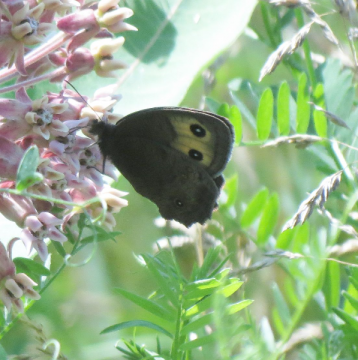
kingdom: Animalia
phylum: Arthropoda
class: Insecta
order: Lepidoptera
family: Nymphalidae
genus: Cercyonis
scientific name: Cercyonis pegala
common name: Common Wood-Nymph
